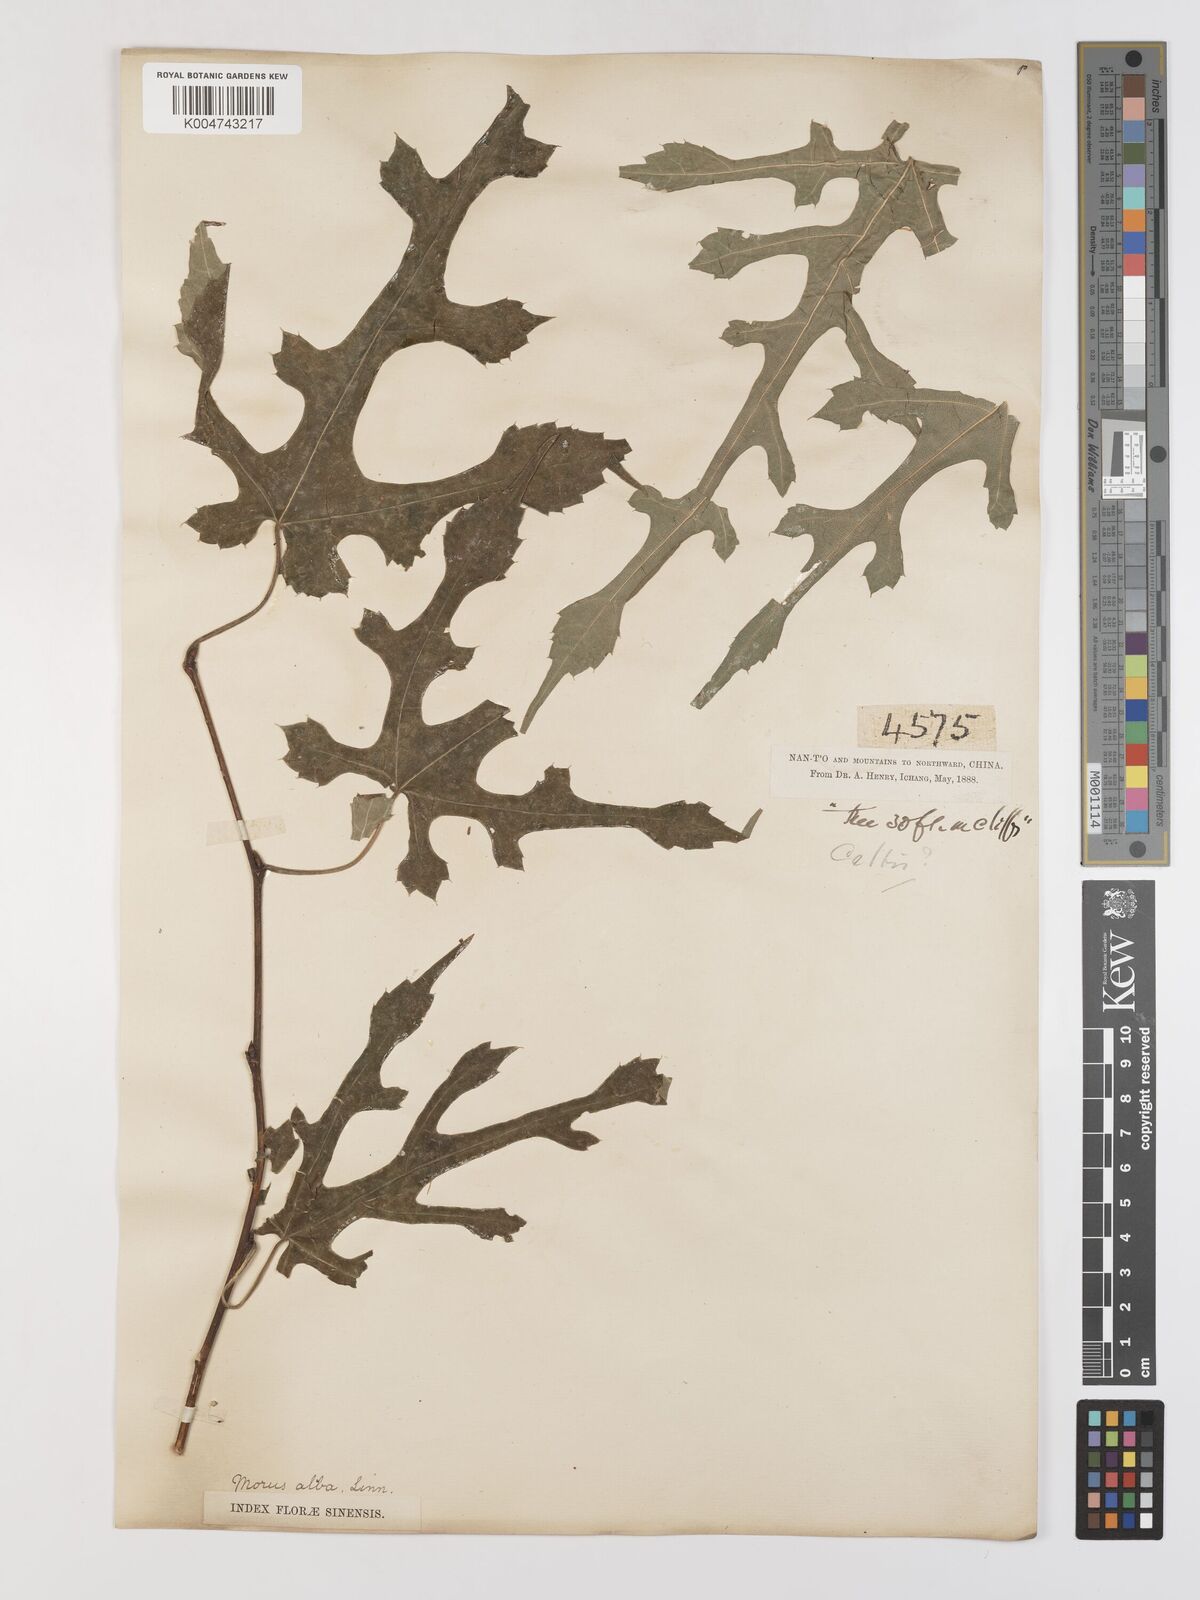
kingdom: Plantae
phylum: Tracheophyta
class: Magnoliopsida
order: Rosales
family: Moraceae
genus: Morus
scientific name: Morus indica
